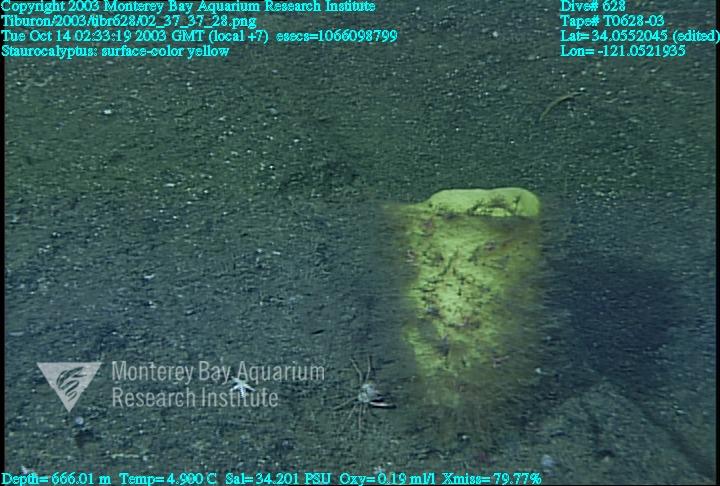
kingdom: Animalia
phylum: Porifera
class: Hexactinellida
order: Lyssacinosida
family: Rossellidae
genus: Staurocalyptus
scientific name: Staurocalyptus
